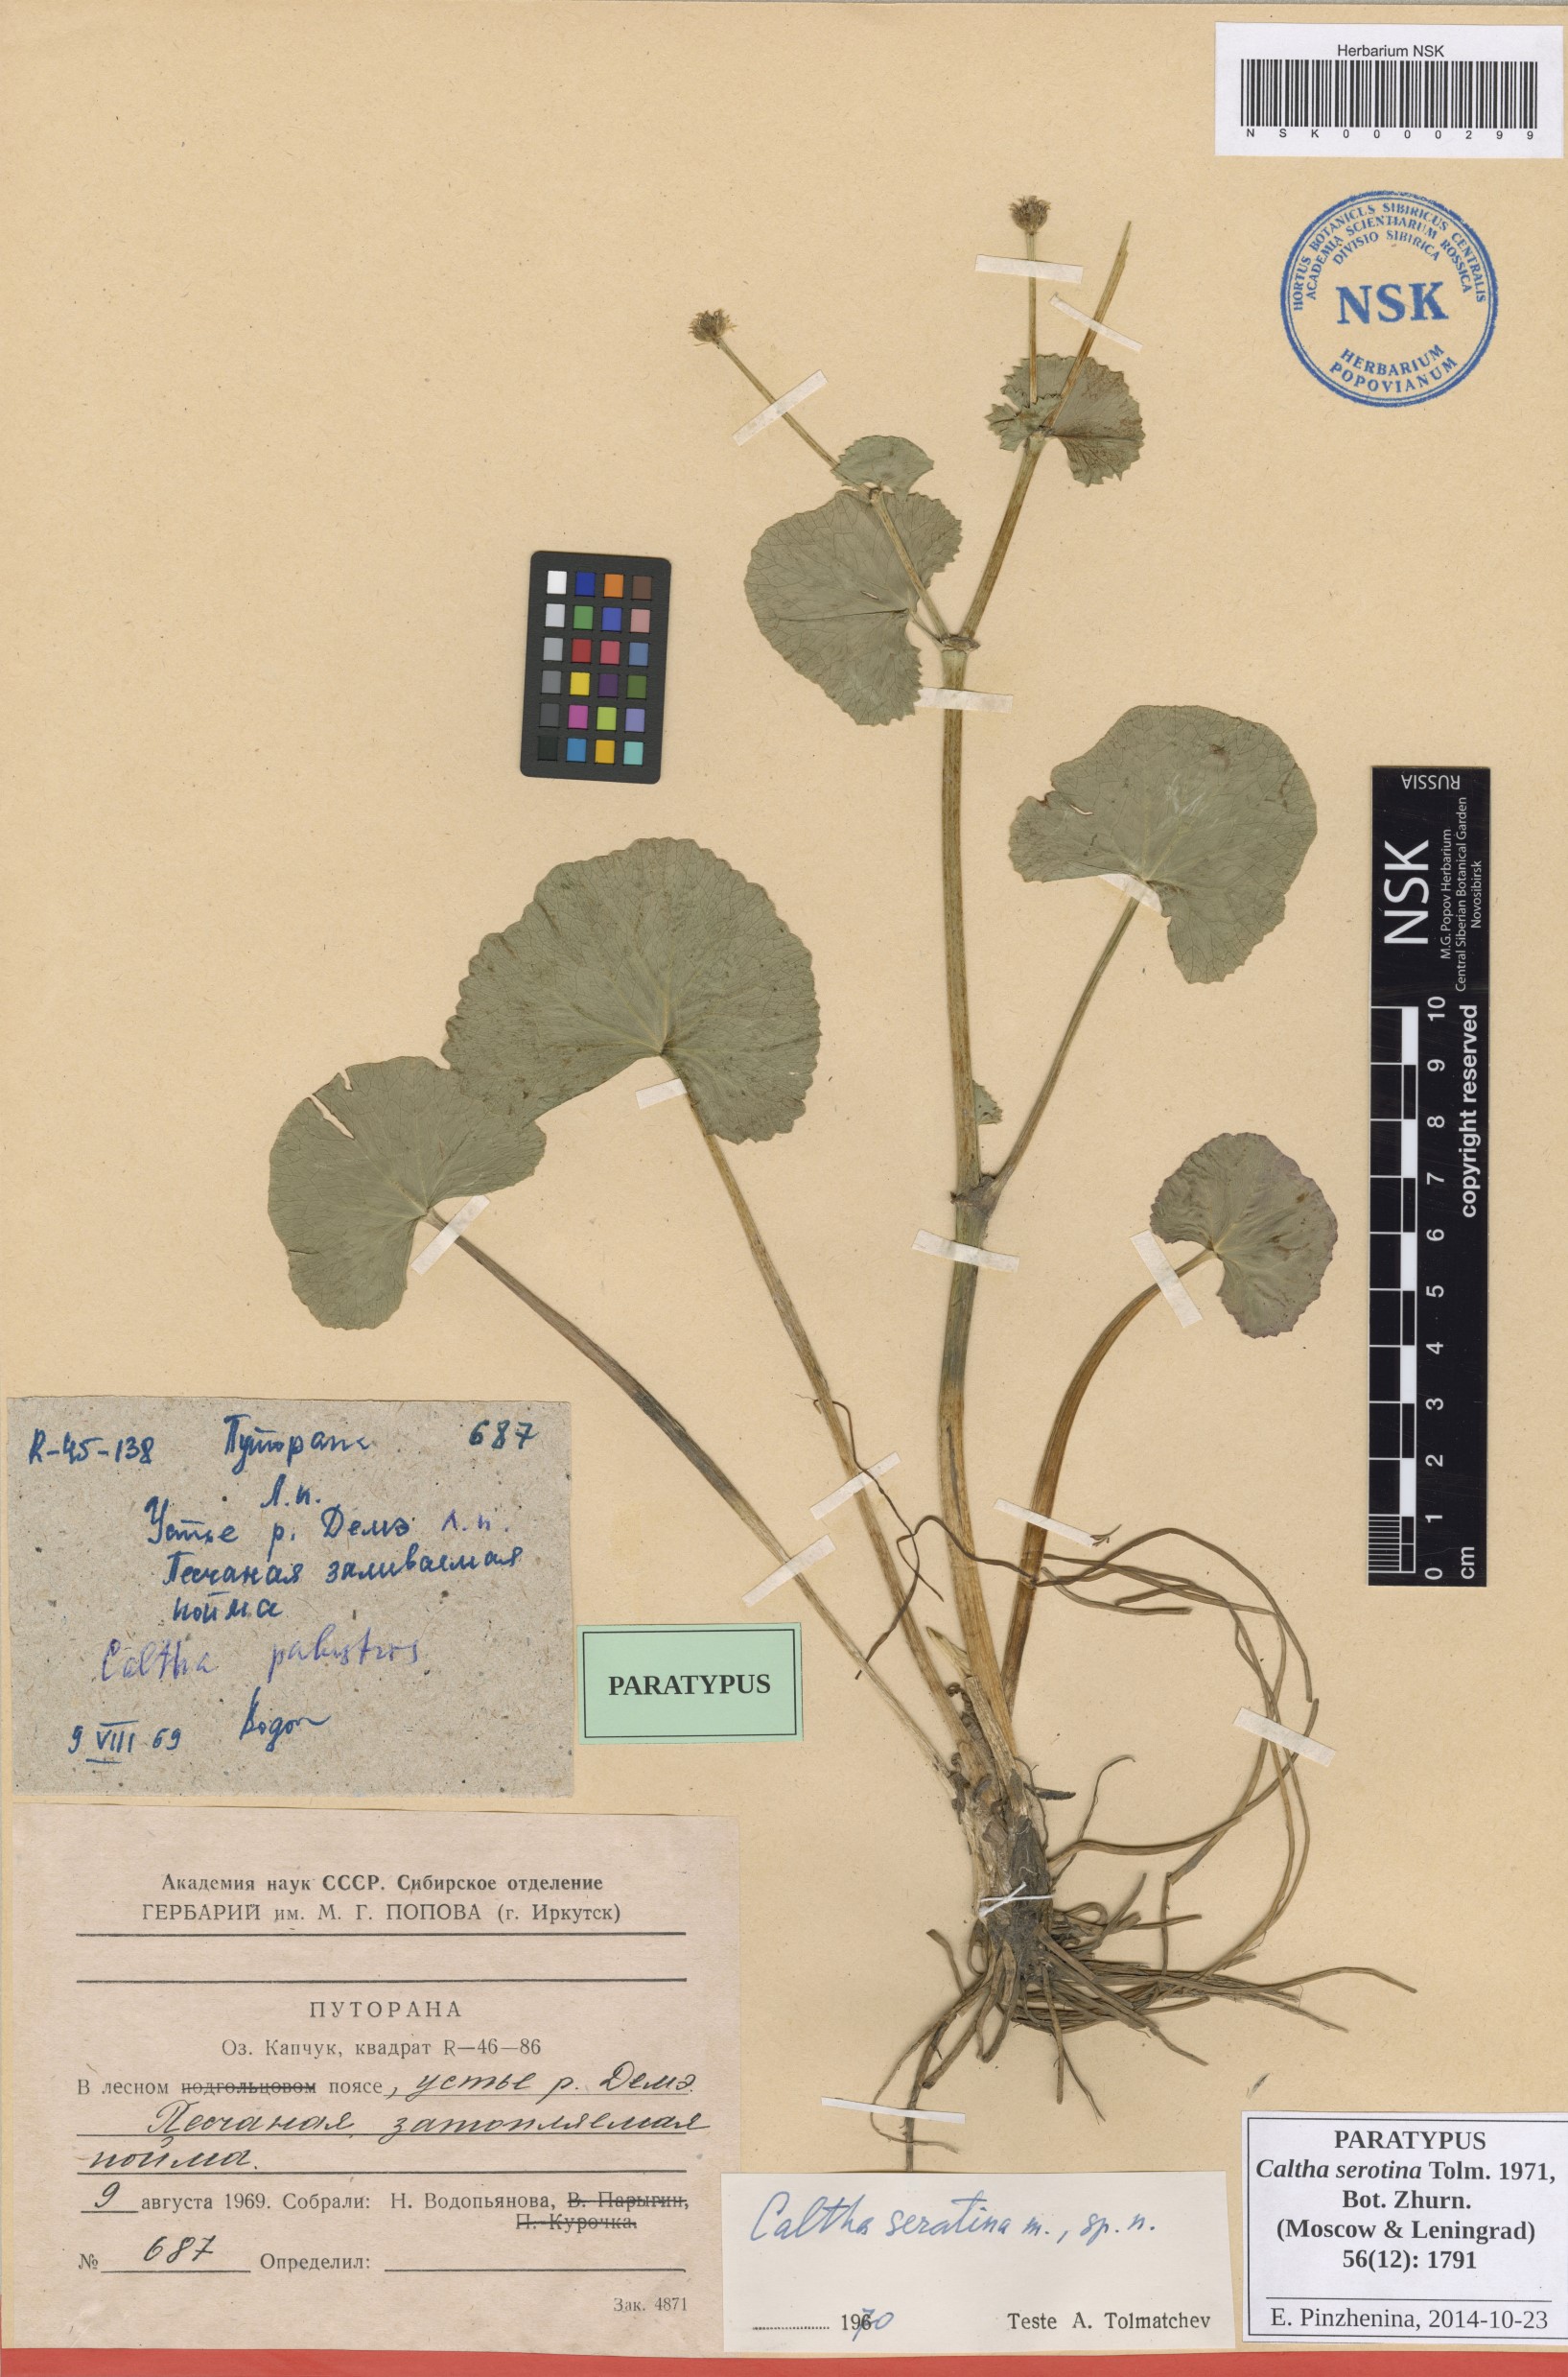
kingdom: Plantae
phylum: Tracheophyta
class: Magnoliopsida
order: Ranunculales
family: Ranunculaceae
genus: Caltha
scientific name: Caltha palustris
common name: Marsh marigold
